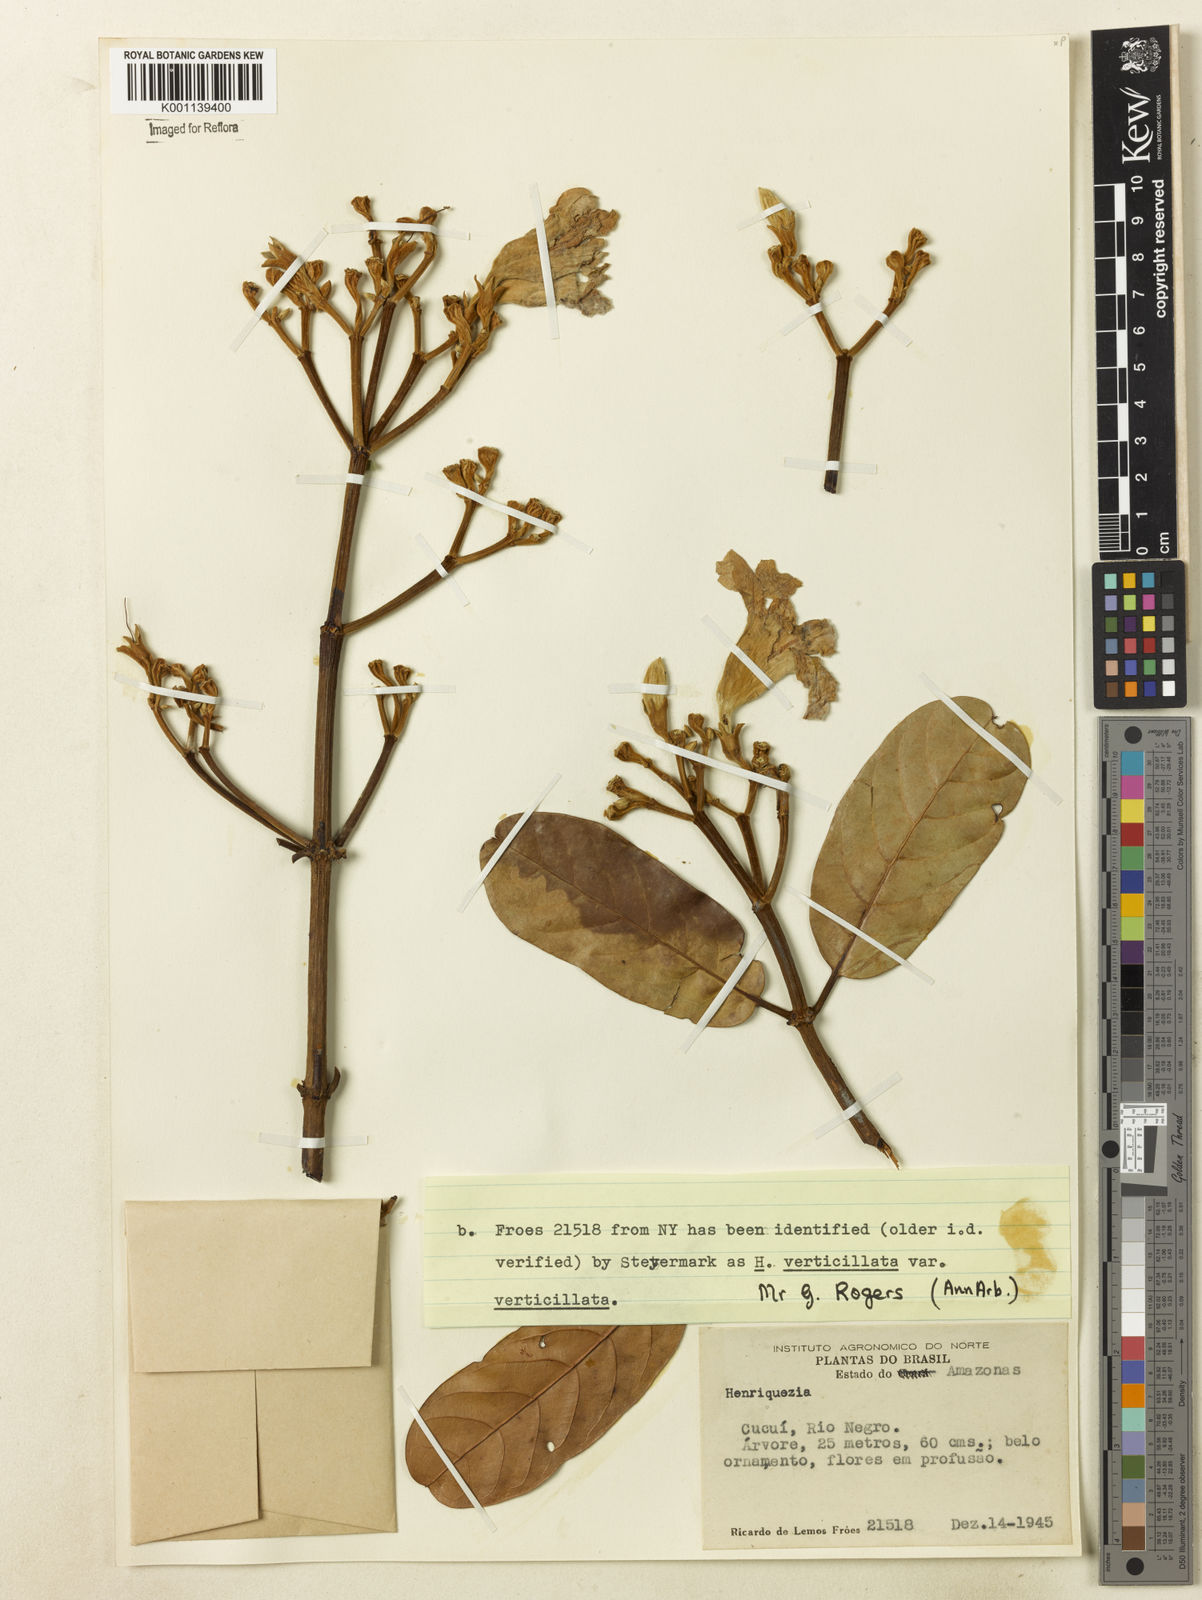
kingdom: Plantae
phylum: Tracheophyta
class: Magnoliopsida
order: Gentianales
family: Rubiaceae
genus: Henriquezia
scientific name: Henriquezia verticillata
